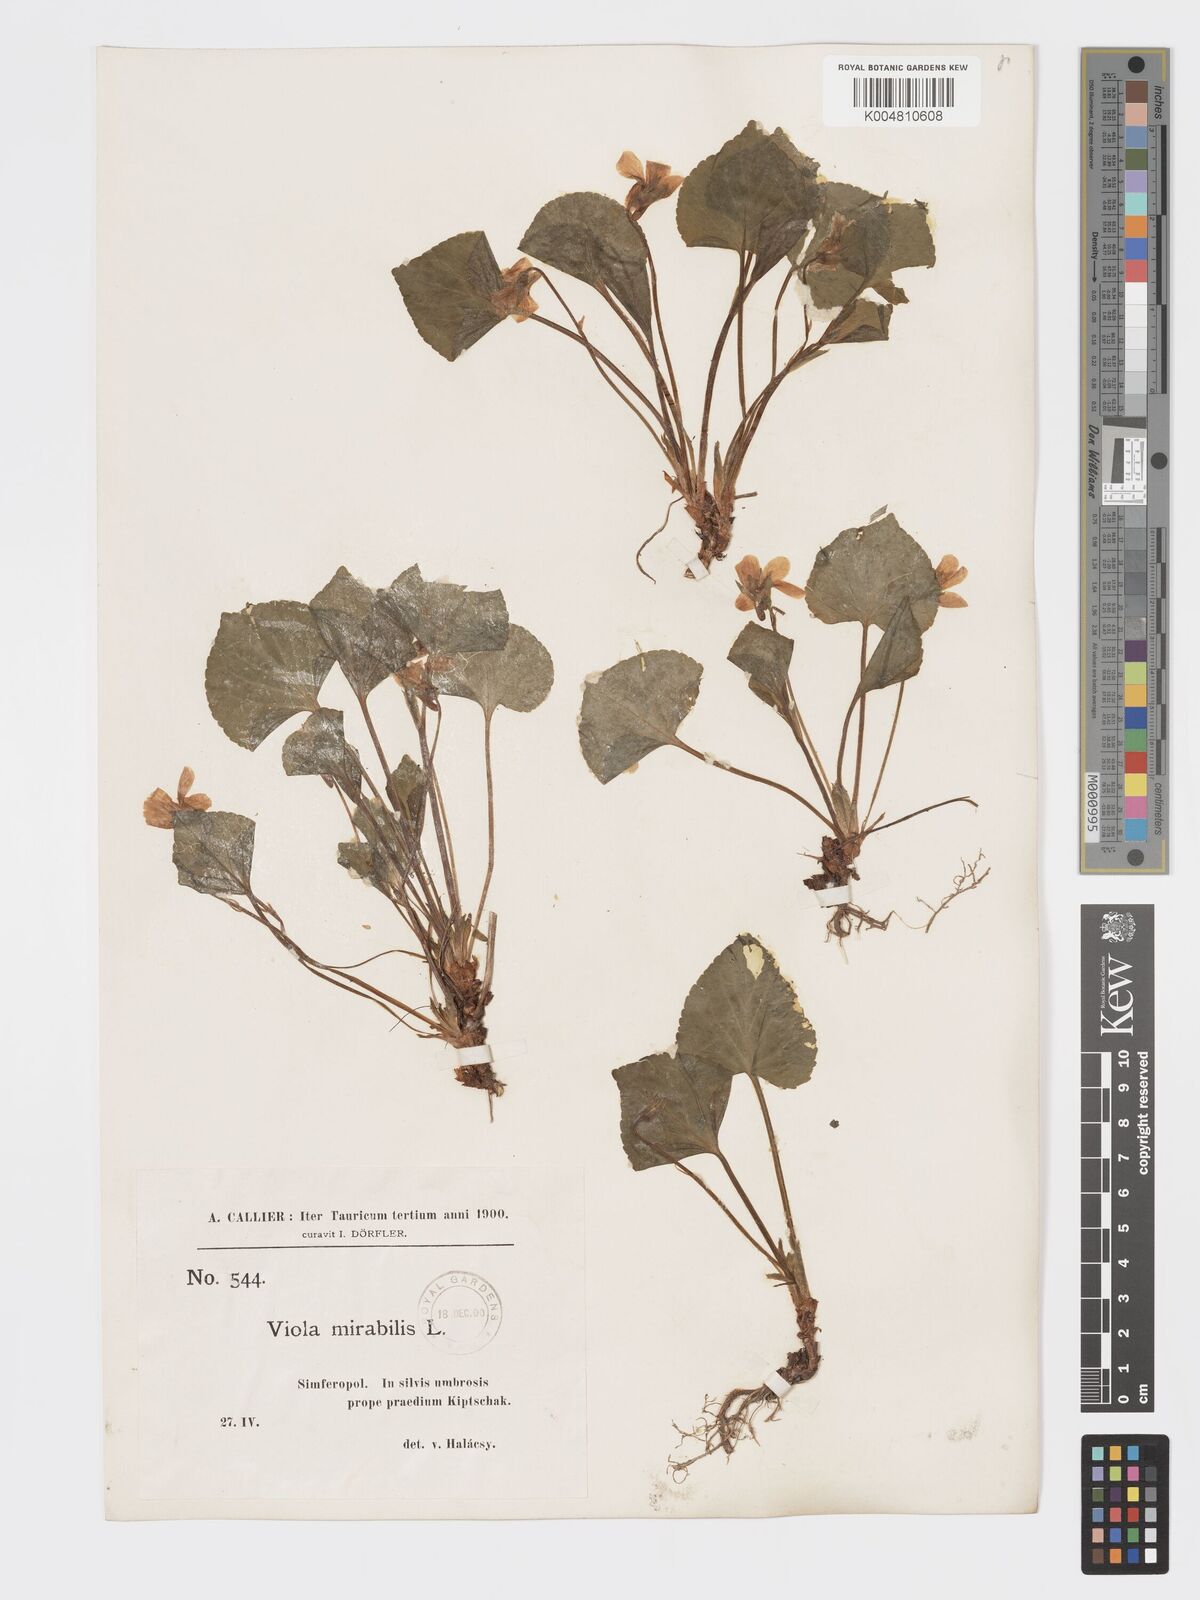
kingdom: Plantae
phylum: Tracheophyta
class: Magnoliopsida
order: Malpighiales
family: Violaceae
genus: Viola
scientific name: Viola mirabilis
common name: Wonder violet
